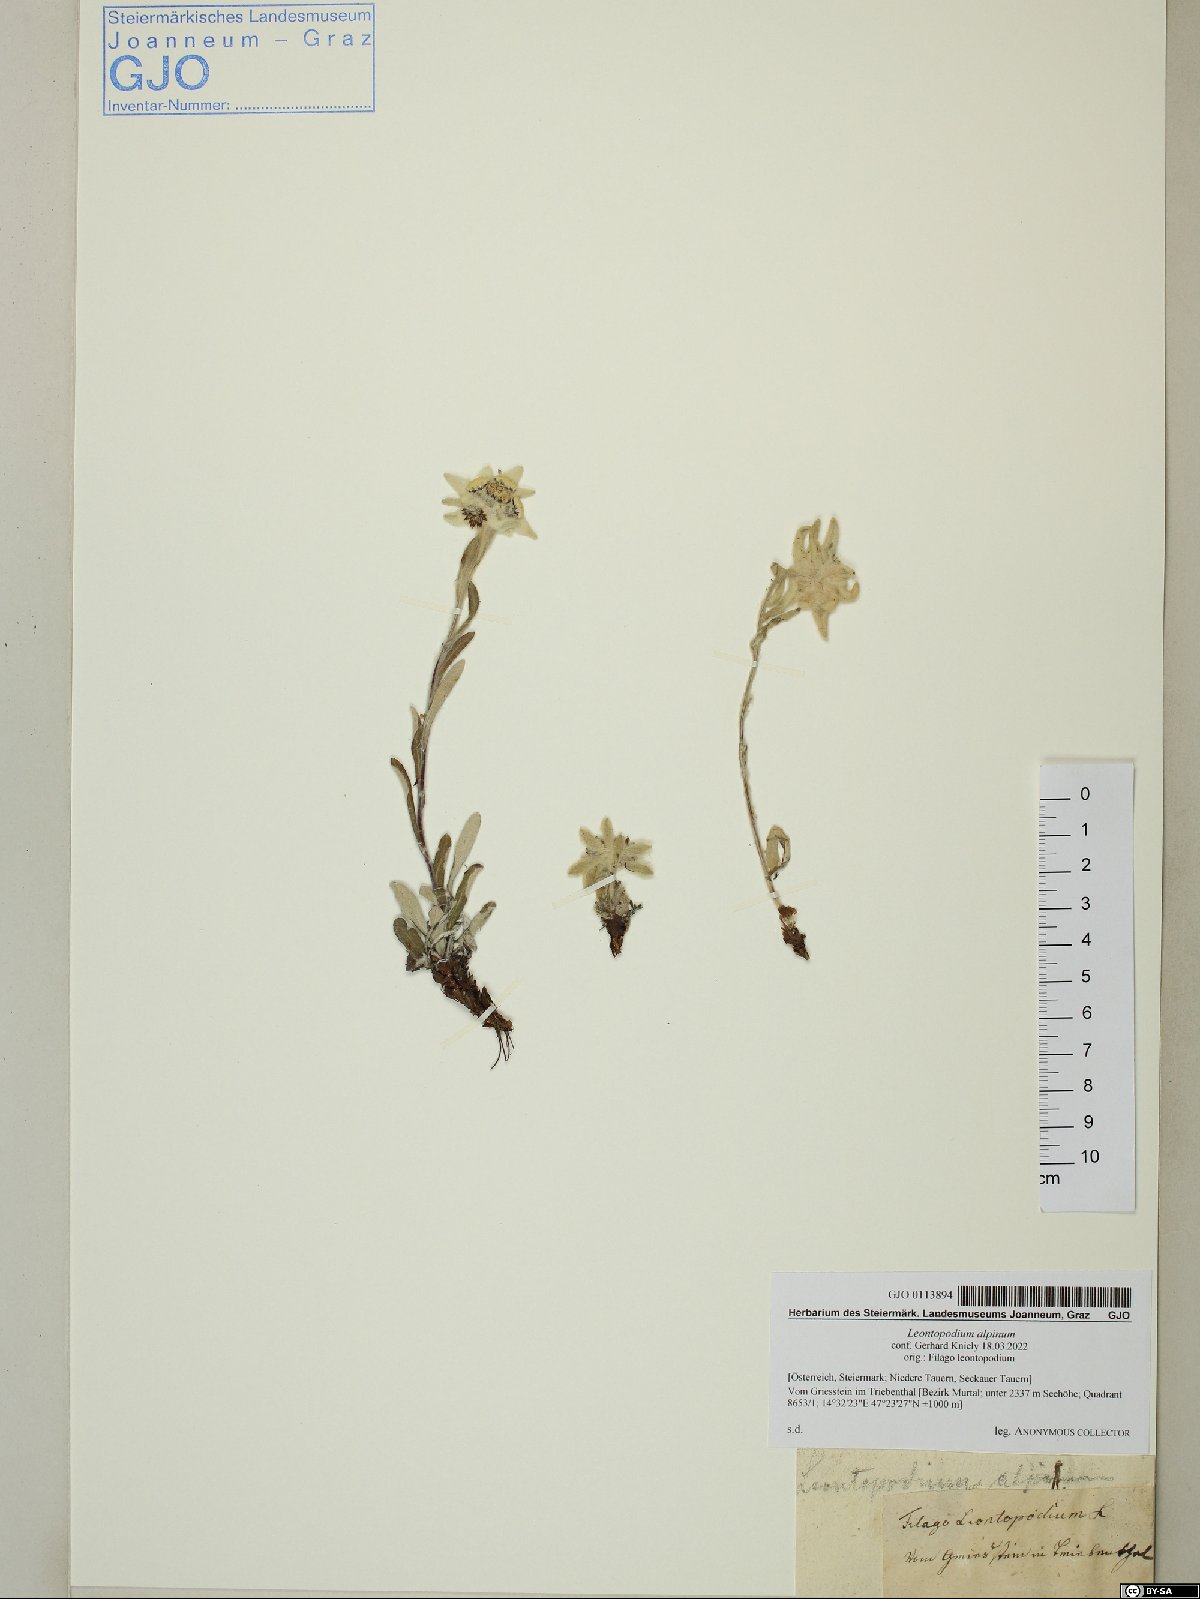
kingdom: Plantae
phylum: Tracheophyta
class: Magnoliopsida
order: Asterales
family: Asteraceae
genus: Leontopodium
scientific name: Leontopodium nivale
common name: Edelweiss
